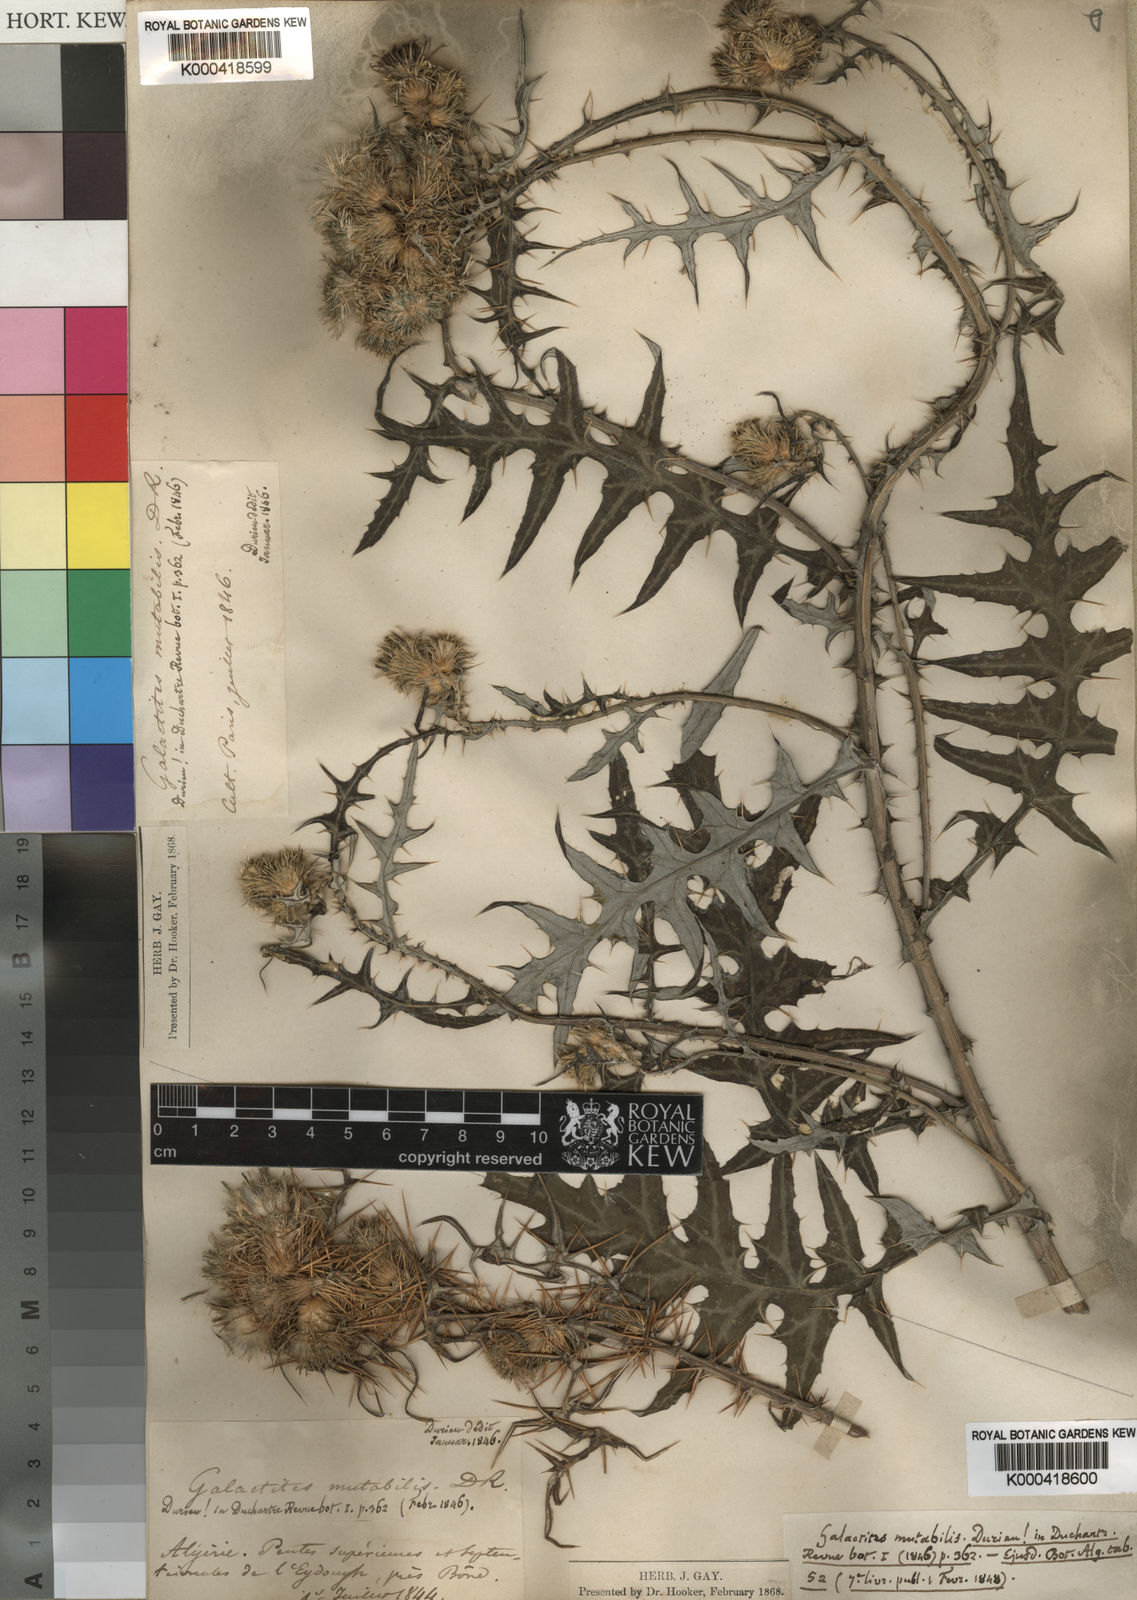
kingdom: Plantae
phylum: Tracheophyta
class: Magnoliopsida
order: Asterales
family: Asteraceae
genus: Galactites
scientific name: Galactites mutabilis
